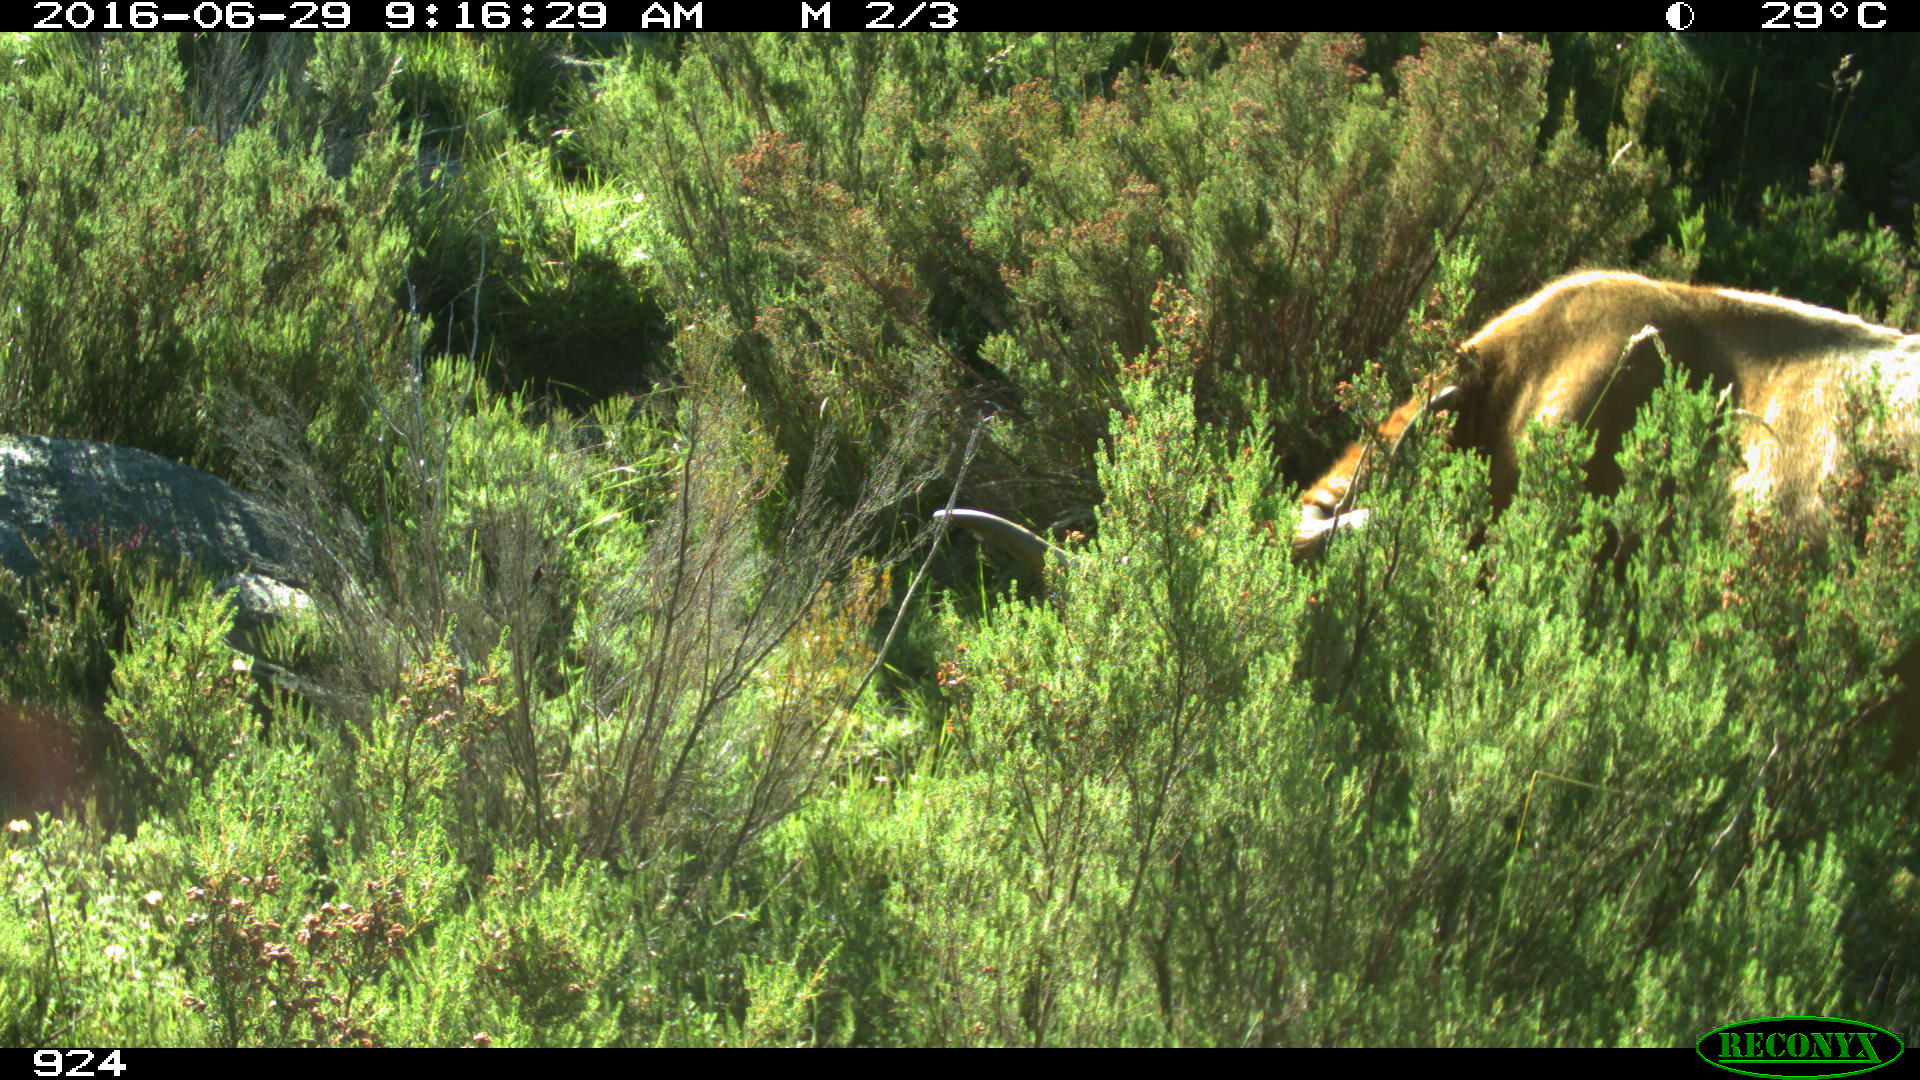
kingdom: Animalia
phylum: Chordata
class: Mammalia
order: Artiodactyla
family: Bovidae
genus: Bos
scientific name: Bos taurus
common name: Domesticated cattle
